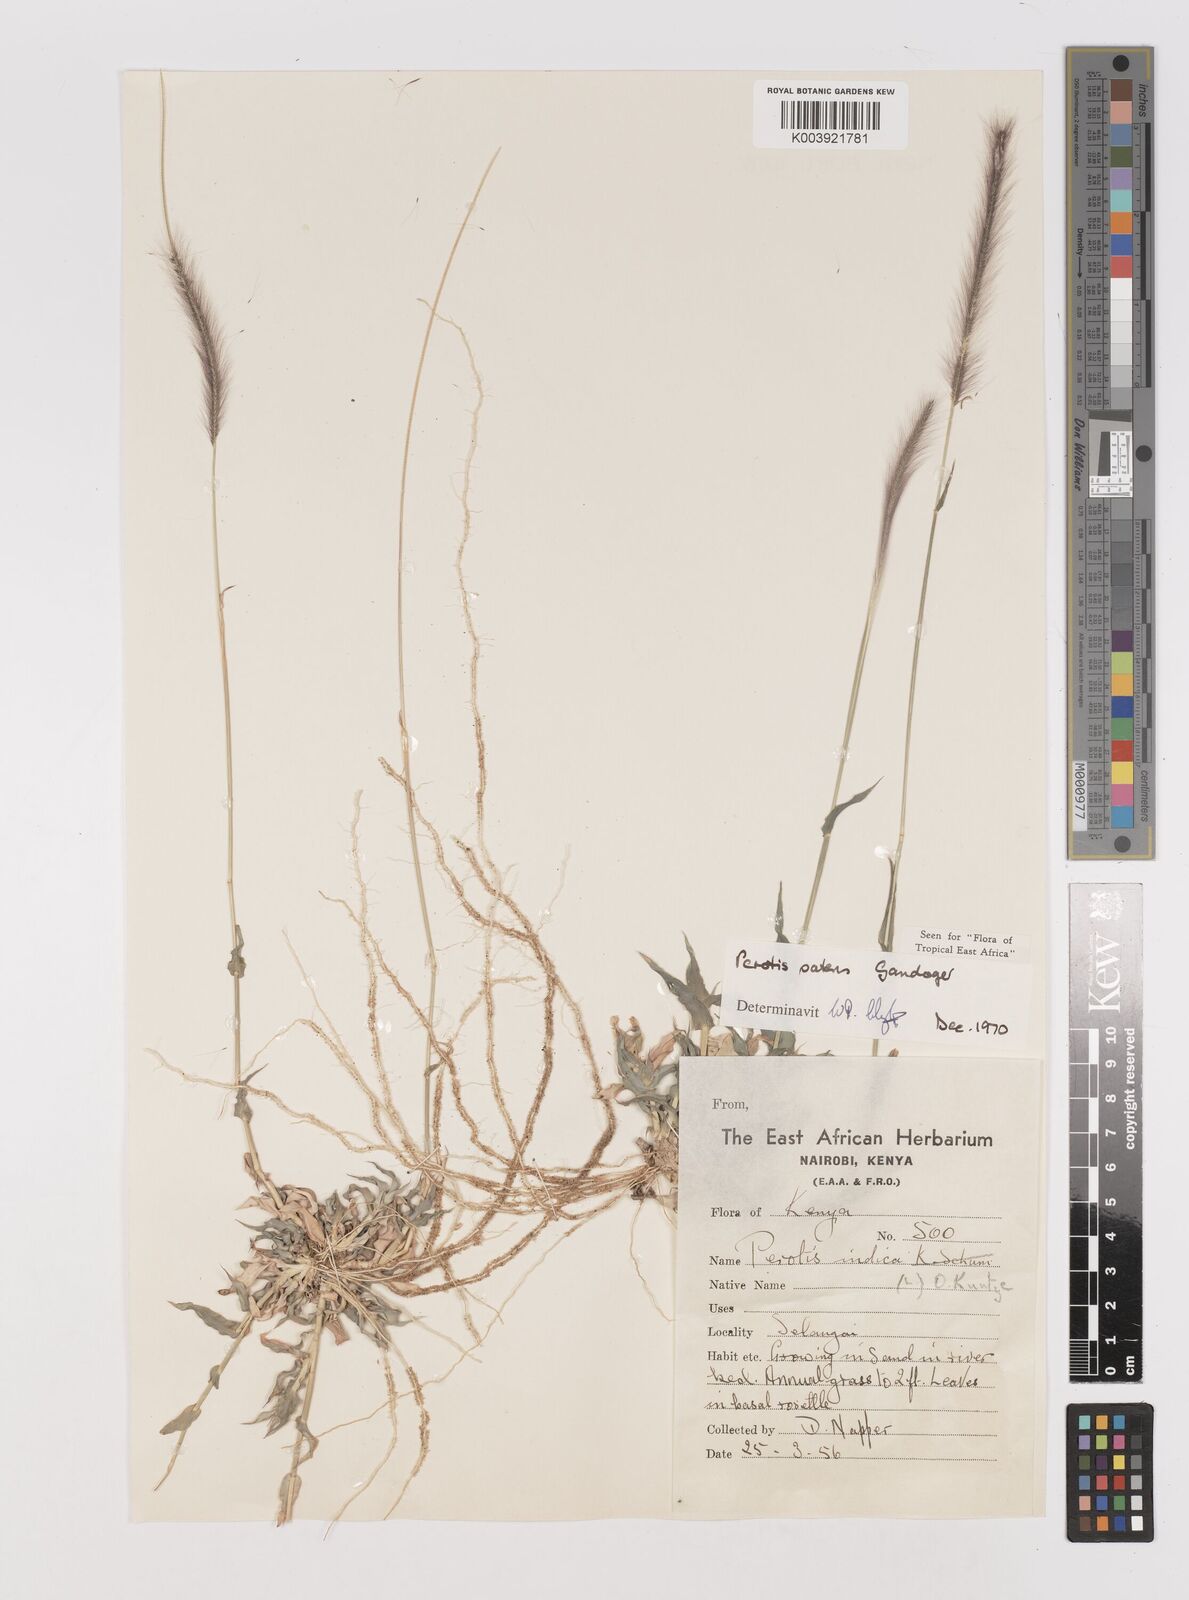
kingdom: Plantae
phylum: Tracheophyta
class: Liliopsida
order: Poales
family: Poaceae
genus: Perotis
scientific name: Perotis patens
